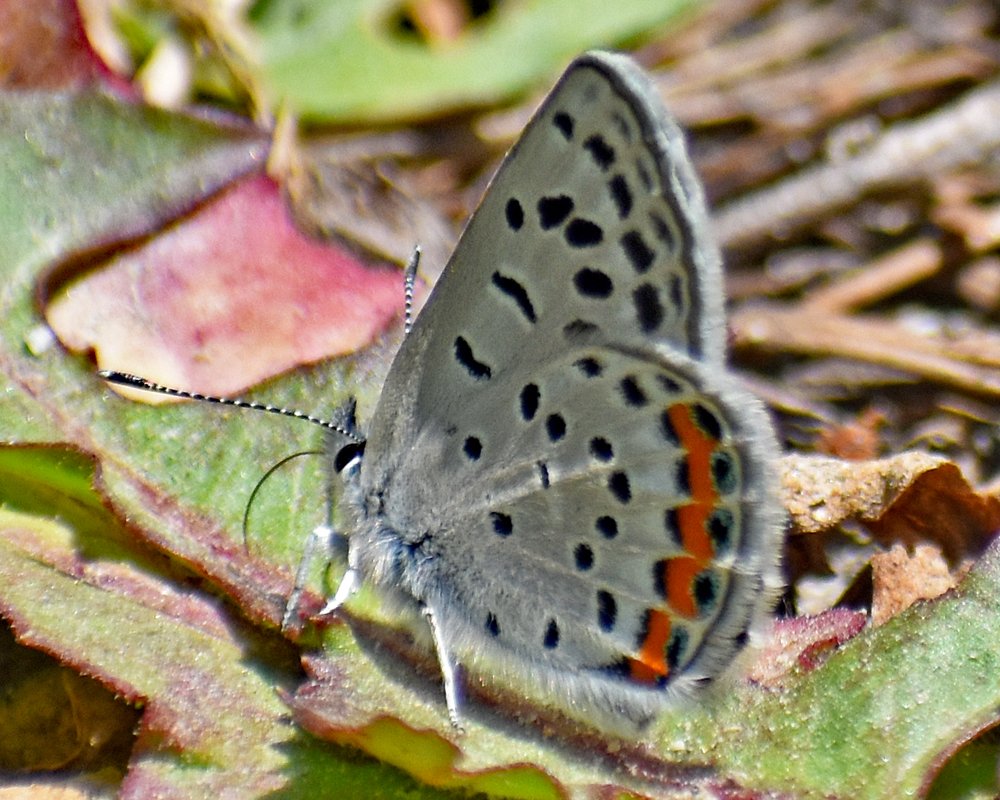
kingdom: Animalia
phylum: Arthropoda
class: Insecta
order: Lepidoptera
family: Lycaenidae
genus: Plebejus
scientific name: Plebejus lupini
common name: Lupine Blue
